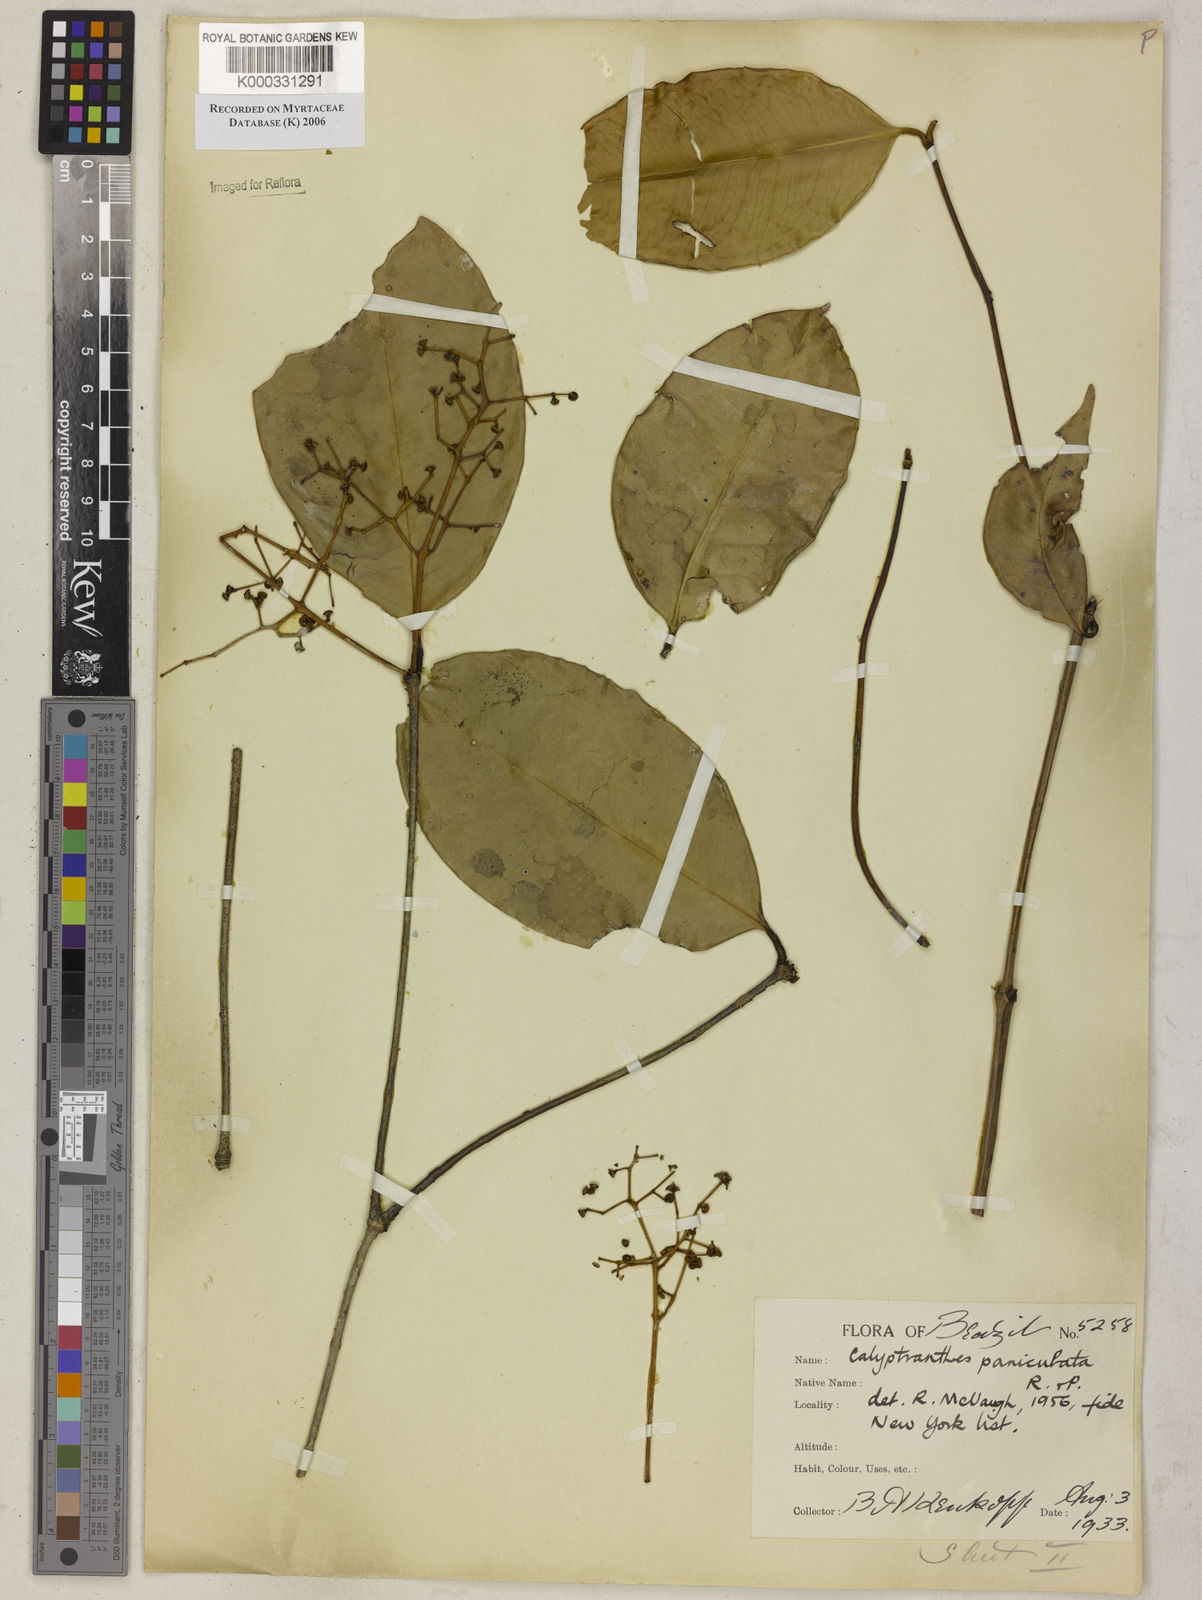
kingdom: Plantae
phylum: Tracheophyta
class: Magnoliopsida
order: Myrtales
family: Myrtaceae
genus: Calyptranthes
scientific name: Calyptranthes
